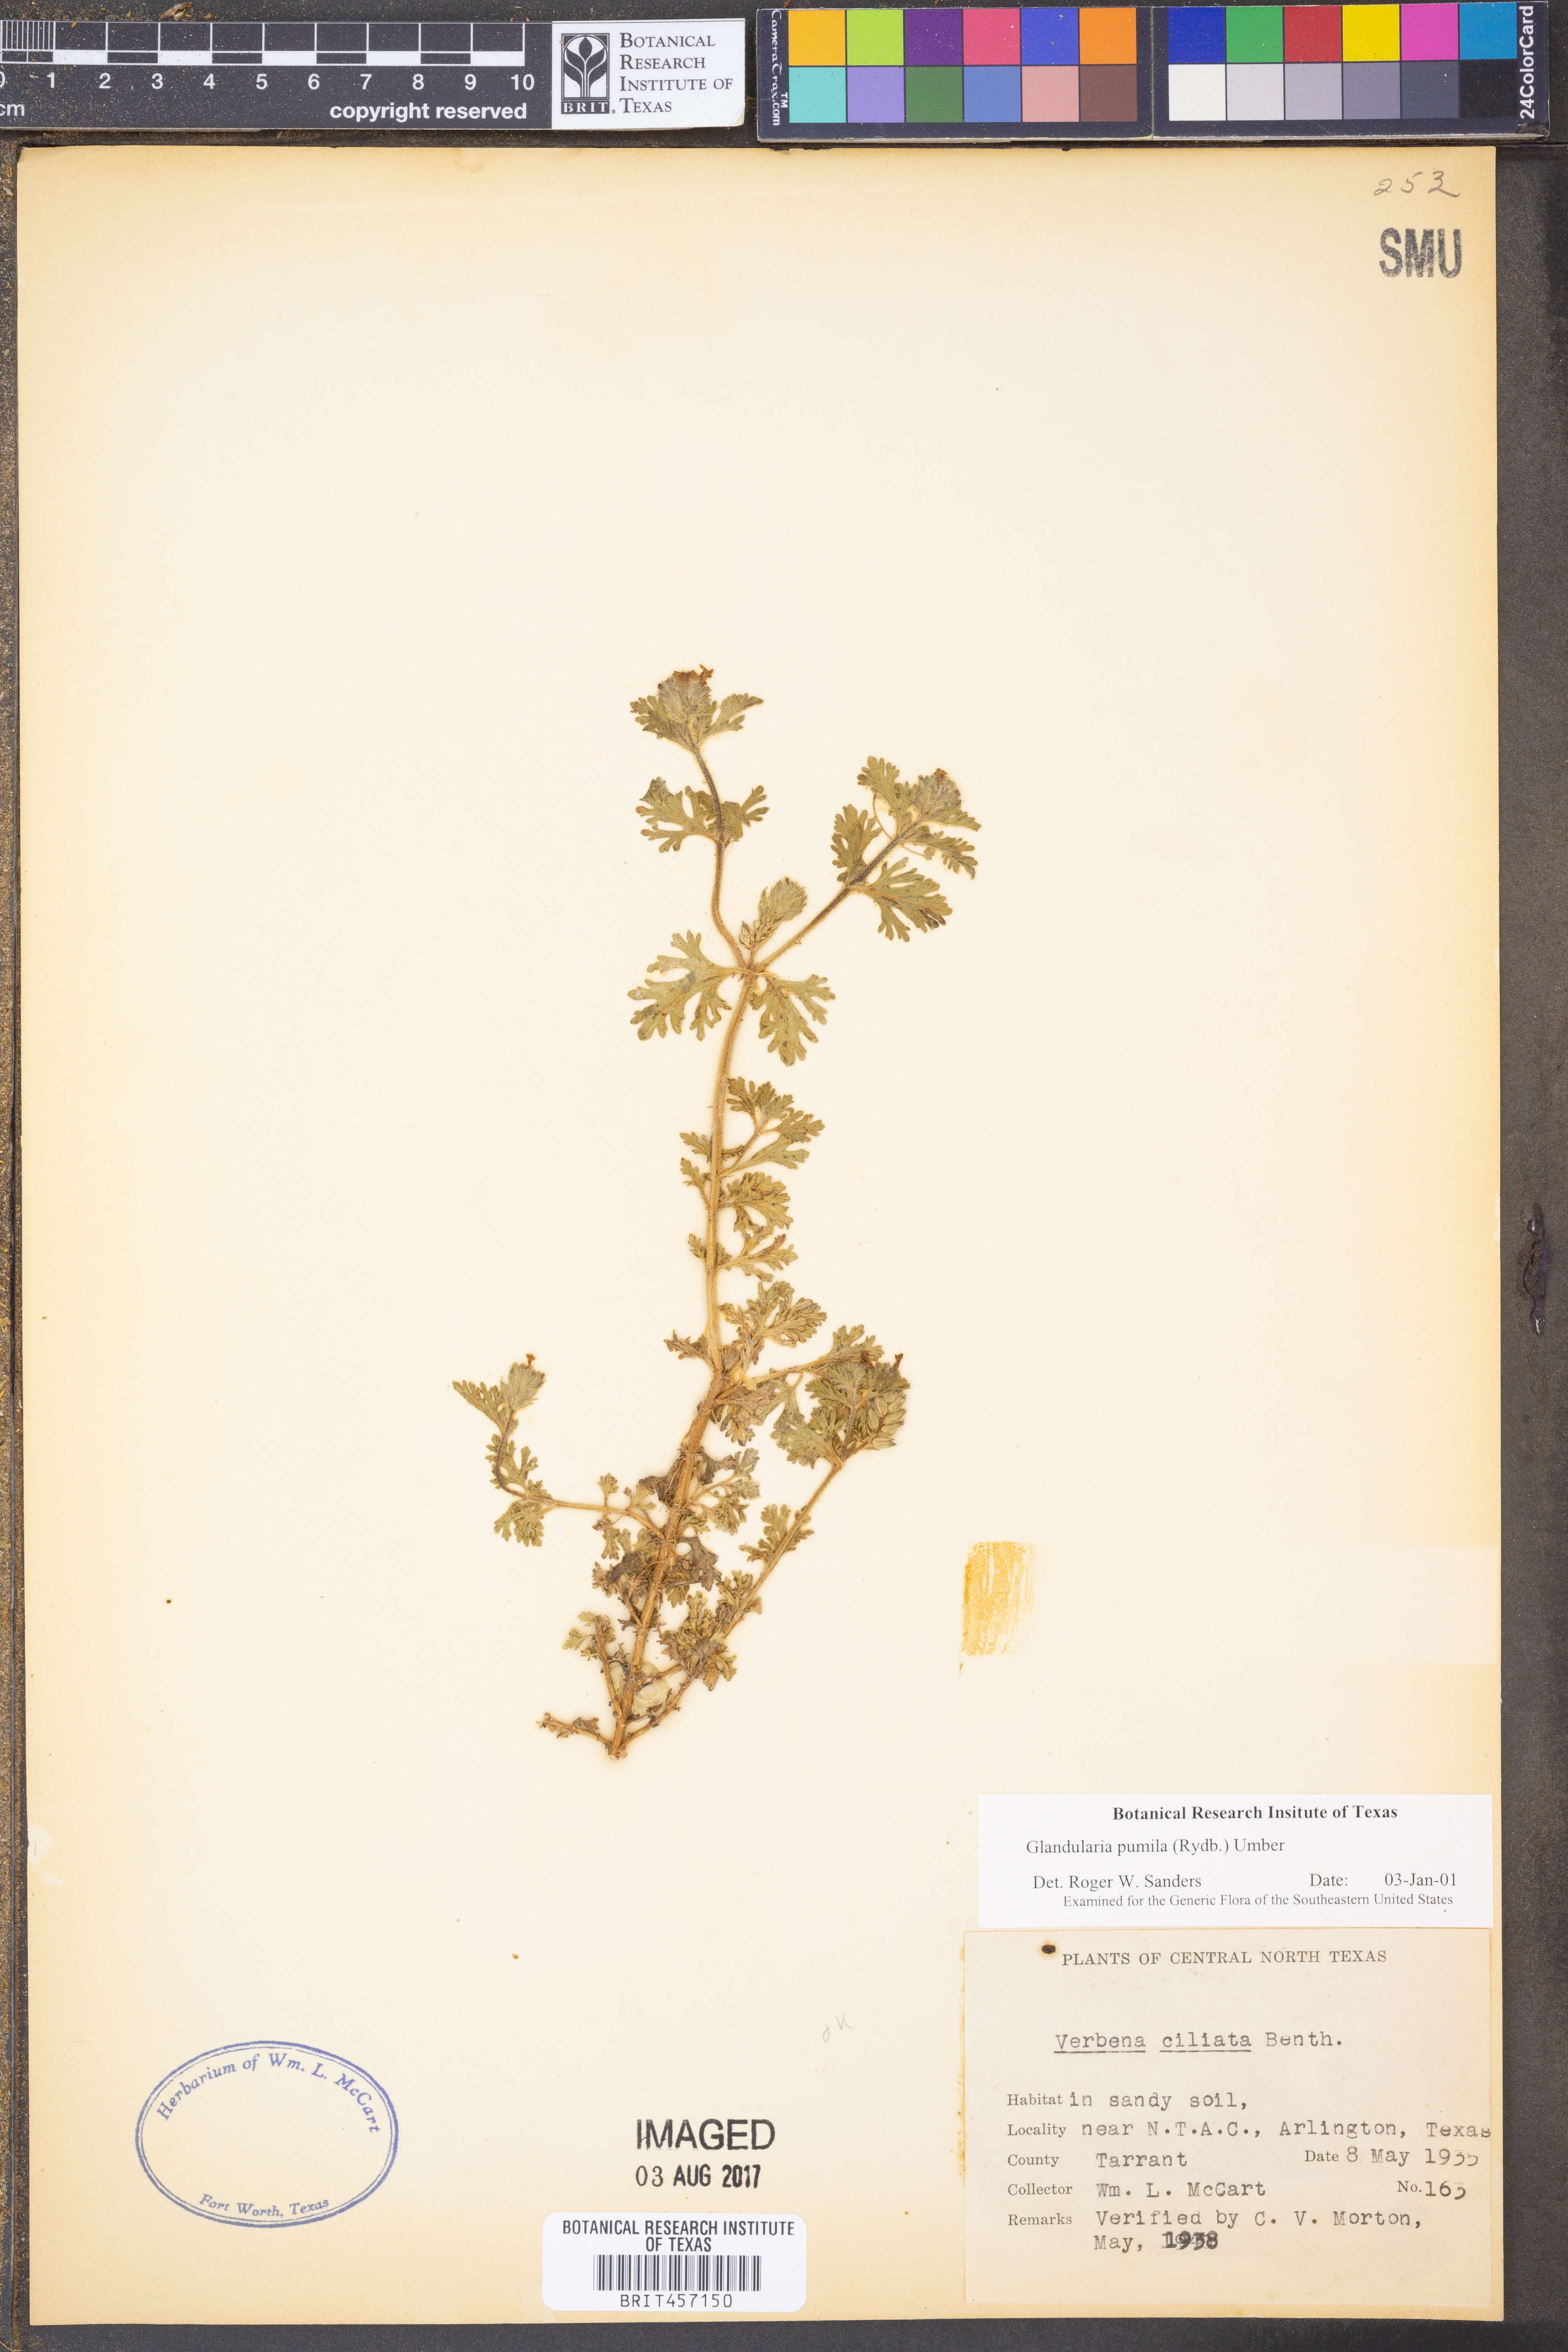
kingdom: Plantae
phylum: Tracheophyta
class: Magnoliopsida
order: Lamiales
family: Verbenaceae
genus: Verbena
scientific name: Verbena pumila
